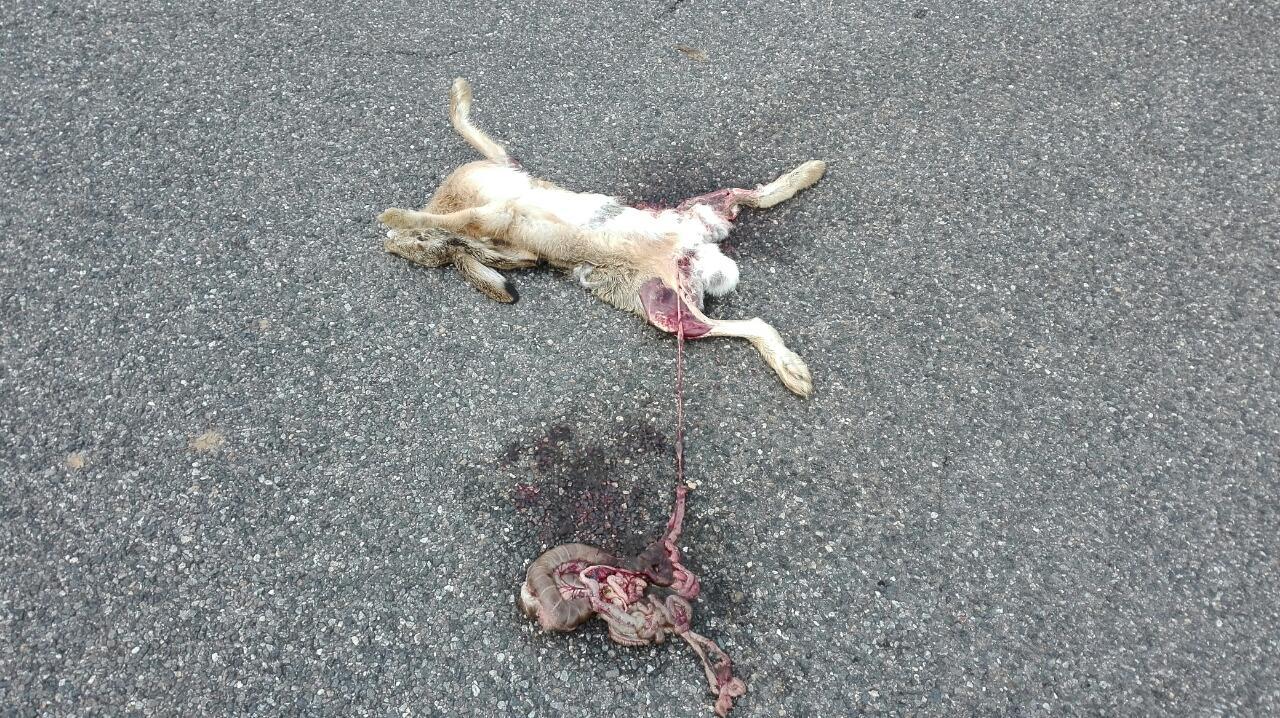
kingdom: Animalia
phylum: Chordata
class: Mammalia
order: Lagomorpha
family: Leporidae
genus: Lepus
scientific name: Lepus europaeus
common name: European hare
